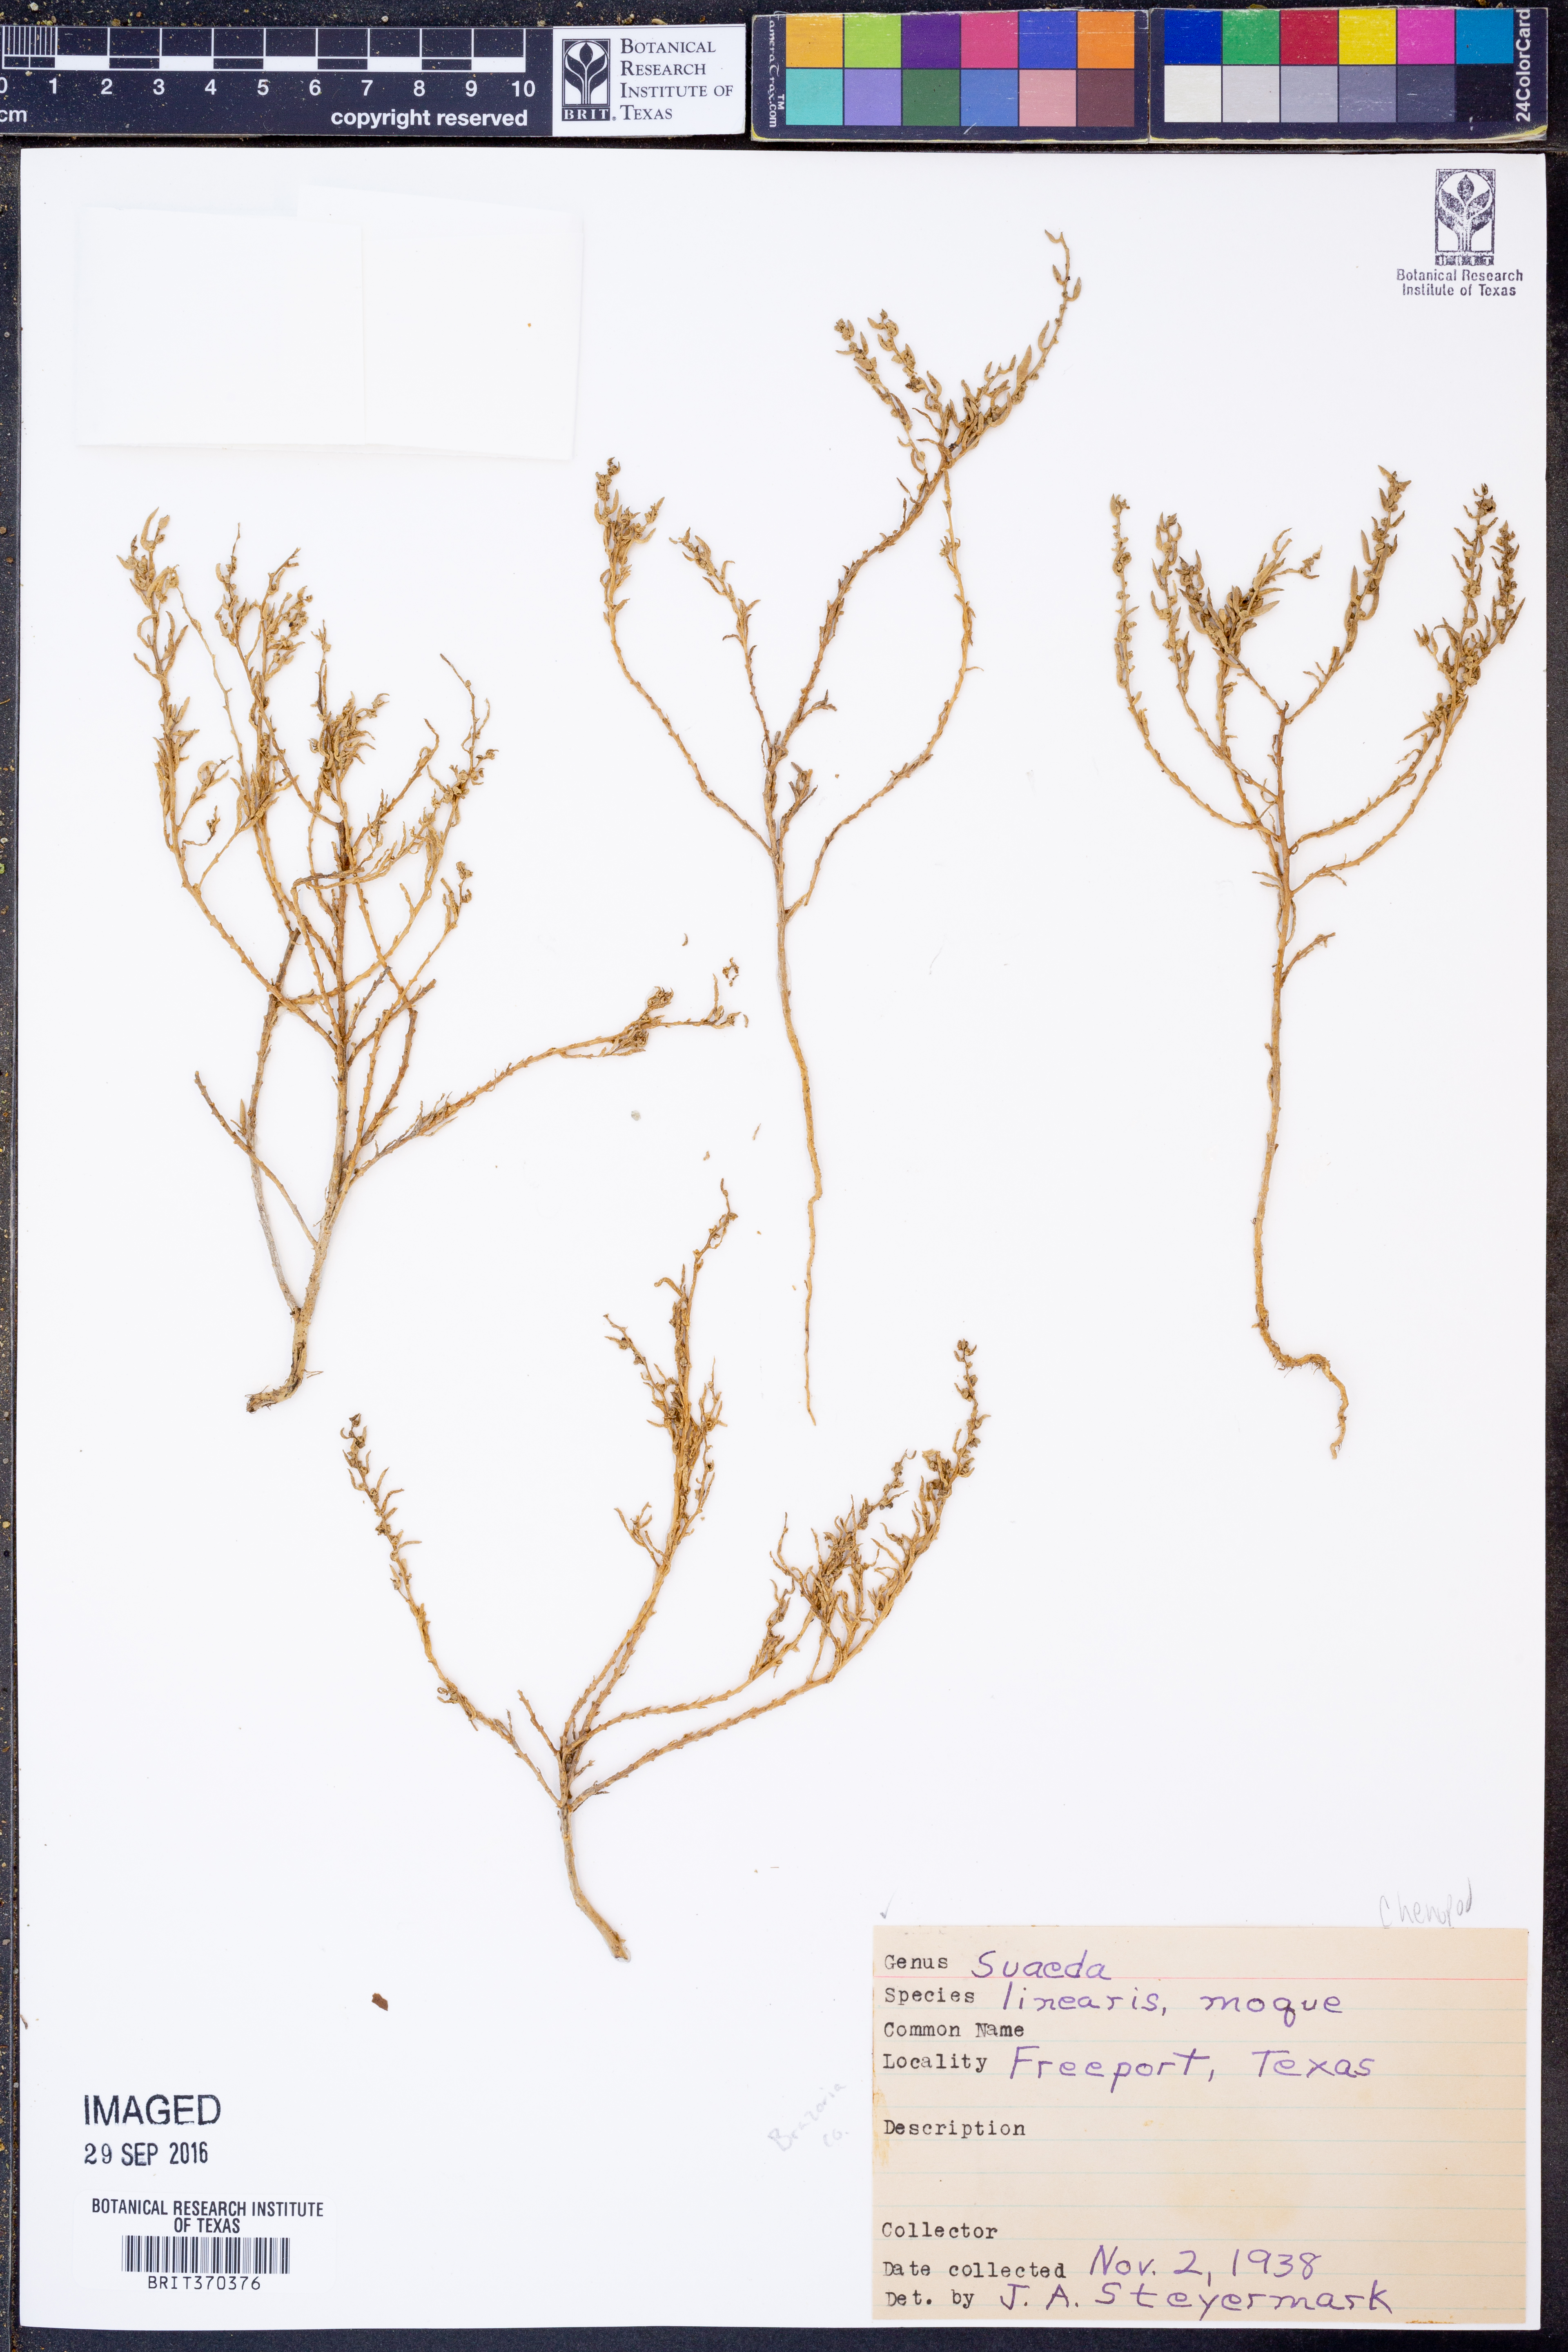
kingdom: Plantae
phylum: Tracheophyta
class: Magnoliopsida
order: Caryophyllales
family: Amaranthaceae
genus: Suaeda
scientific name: Suaeda linearis
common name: Annual seepweed
